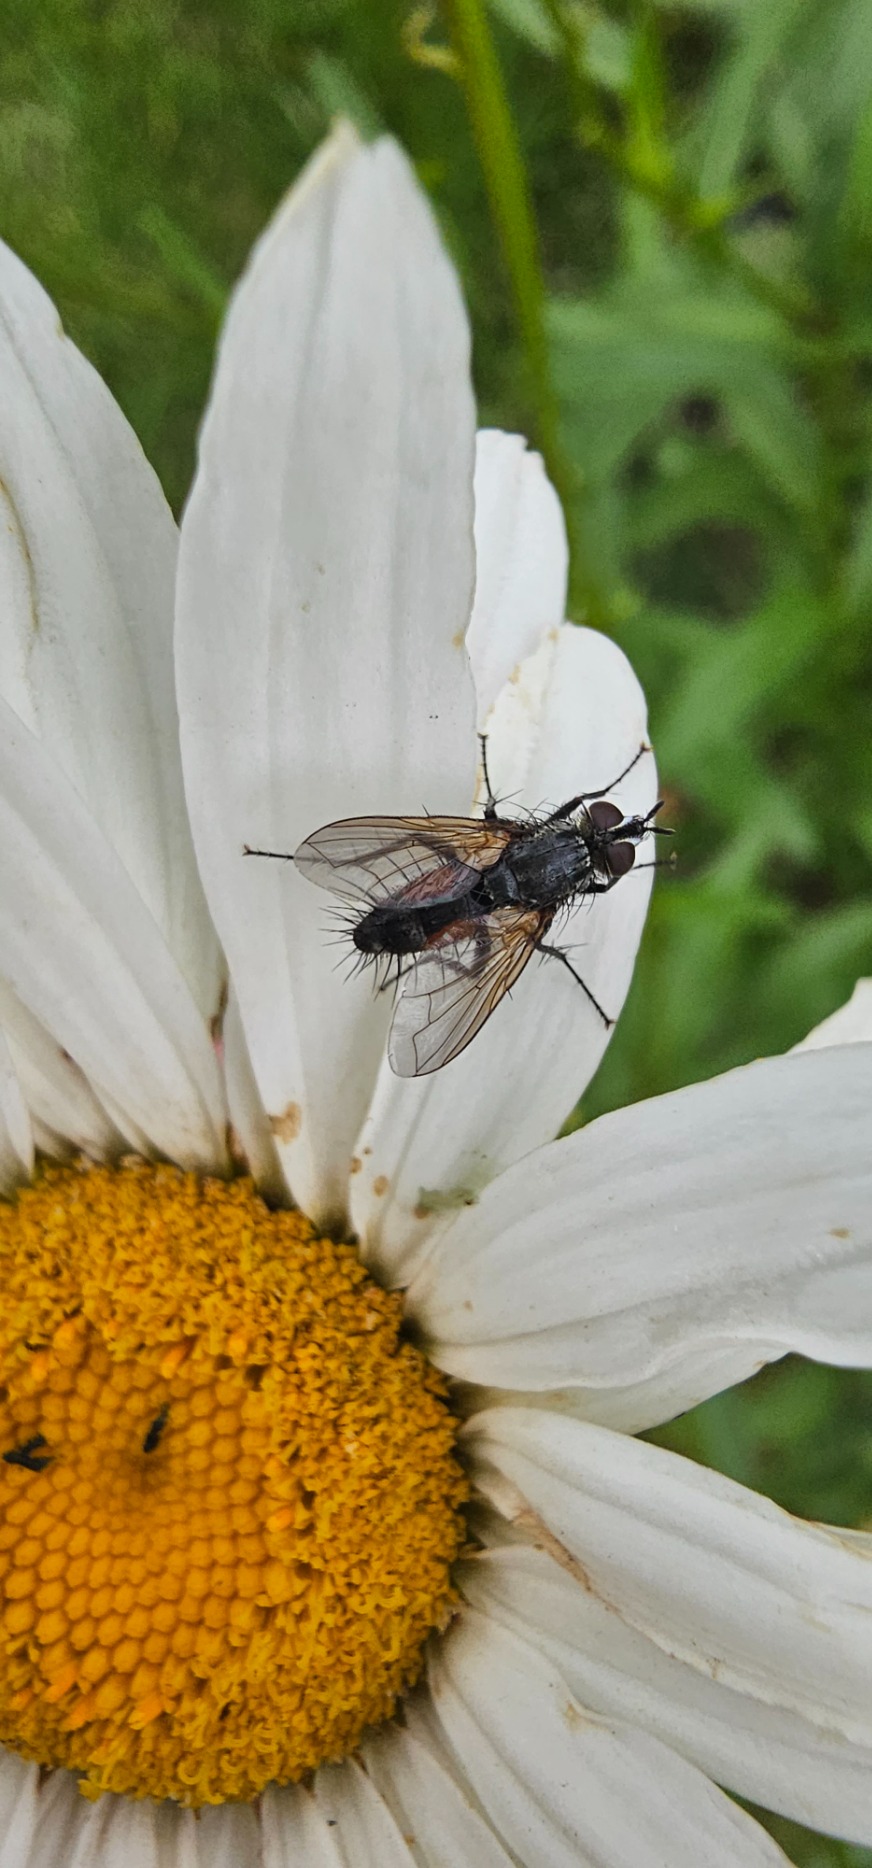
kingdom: Animalia
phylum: Arthropoda
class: Insecta
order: Diptera
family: Tachinidae
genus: Eriothrix
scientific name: Eriothrix rufomaculatus
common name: Rød snylteflue
